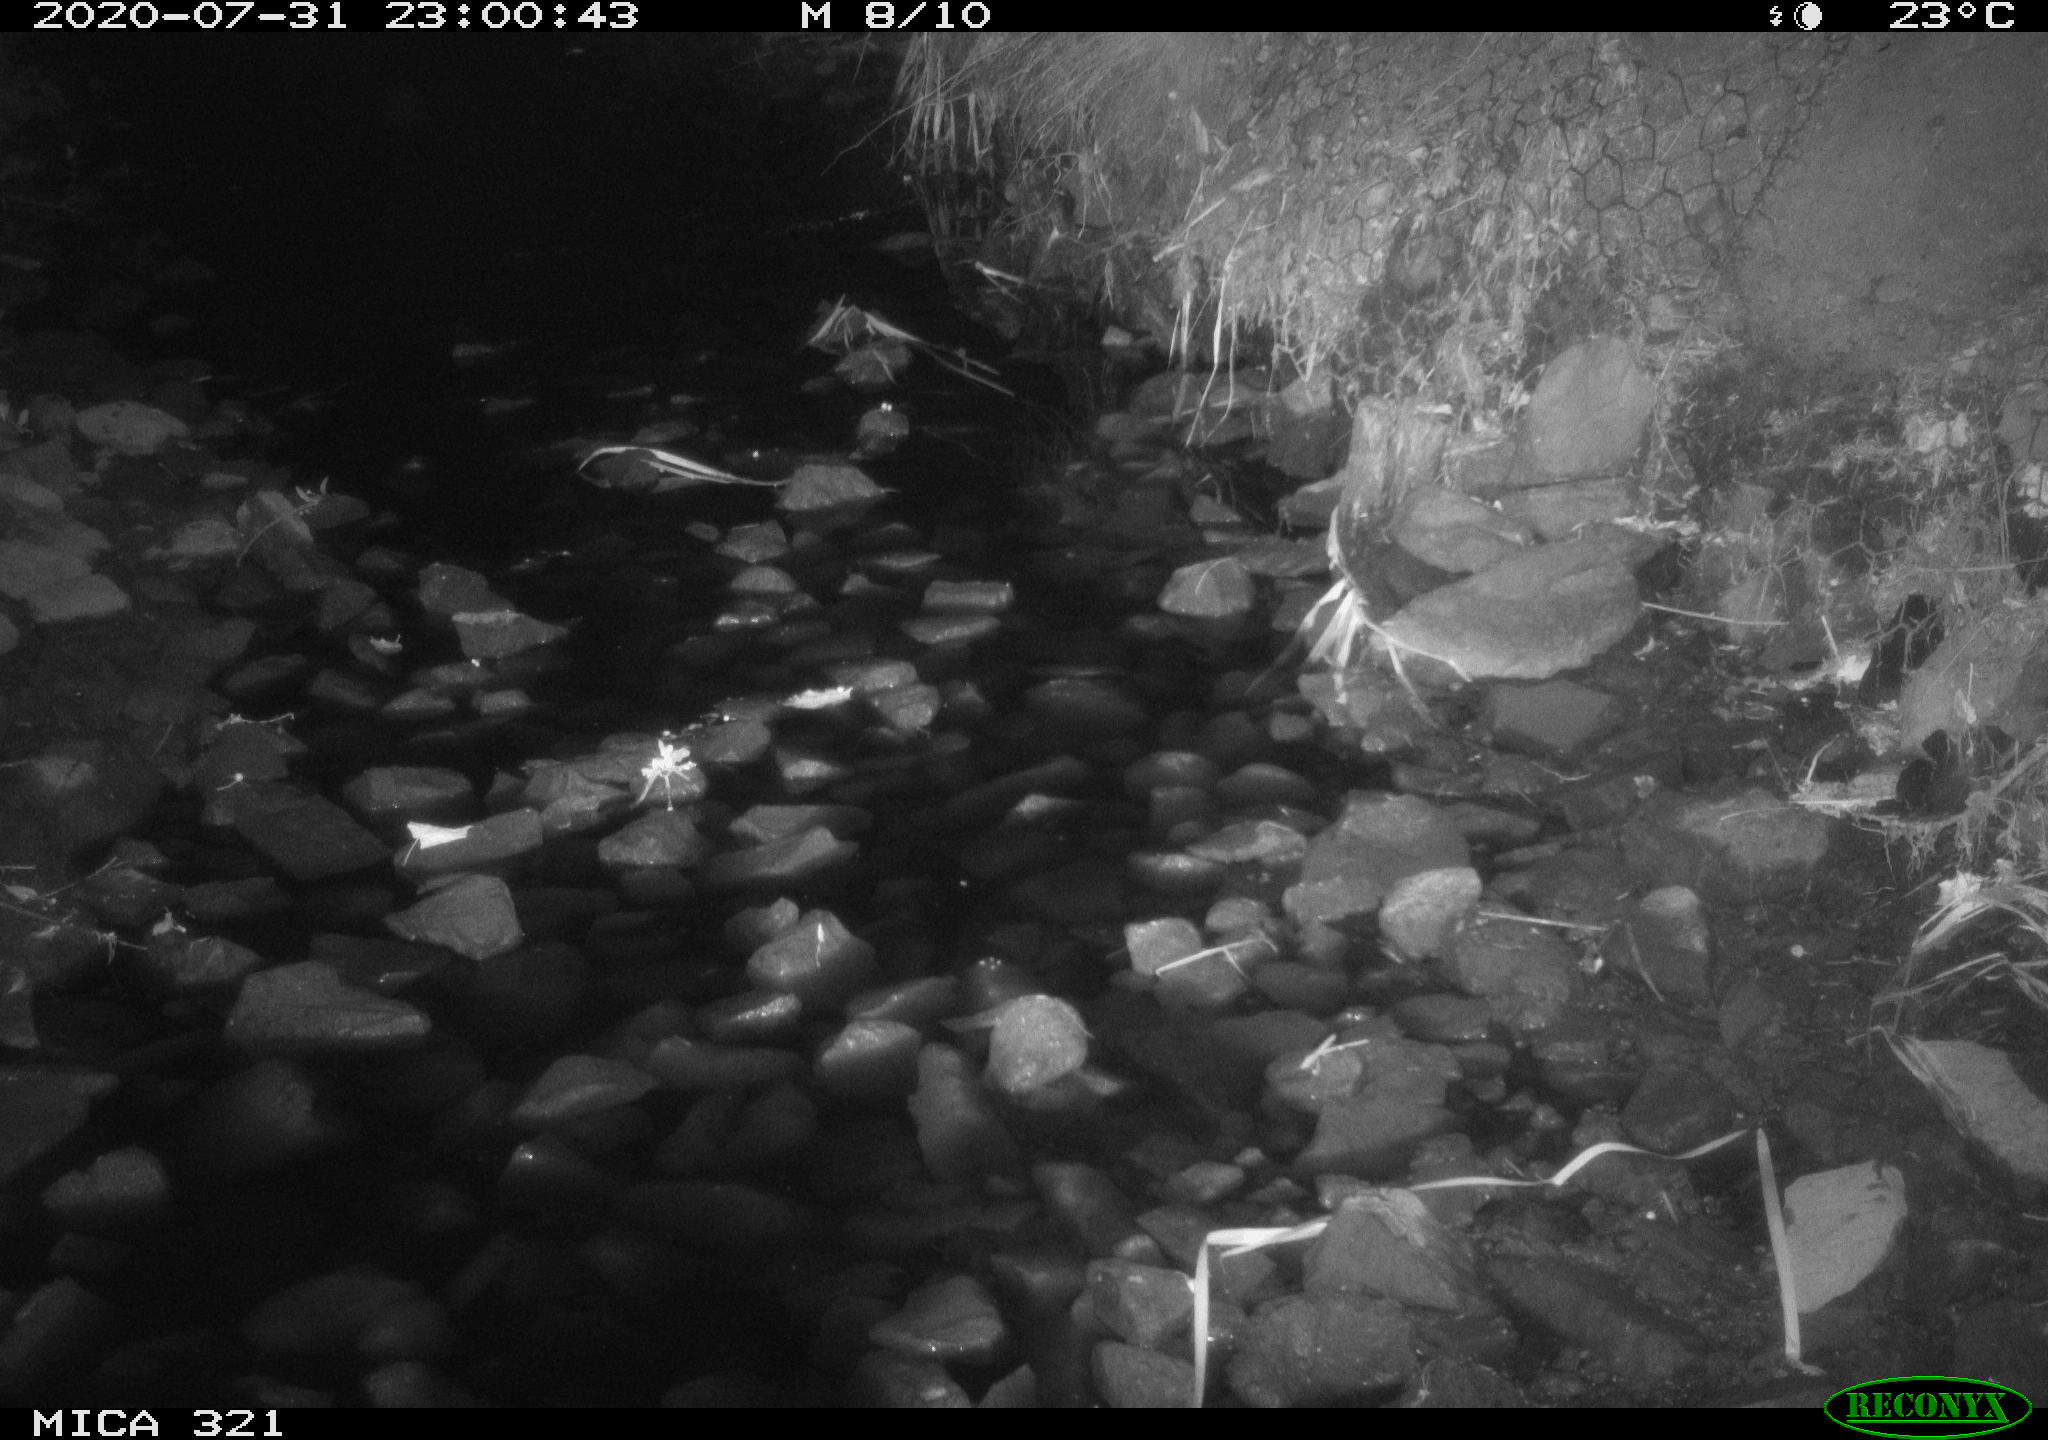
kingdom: Animalia
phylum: Chordata
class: Mammalia
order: Rodentia
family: Muridae
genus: Rattus
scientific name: Rattus norvegicus
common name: Brown rat
